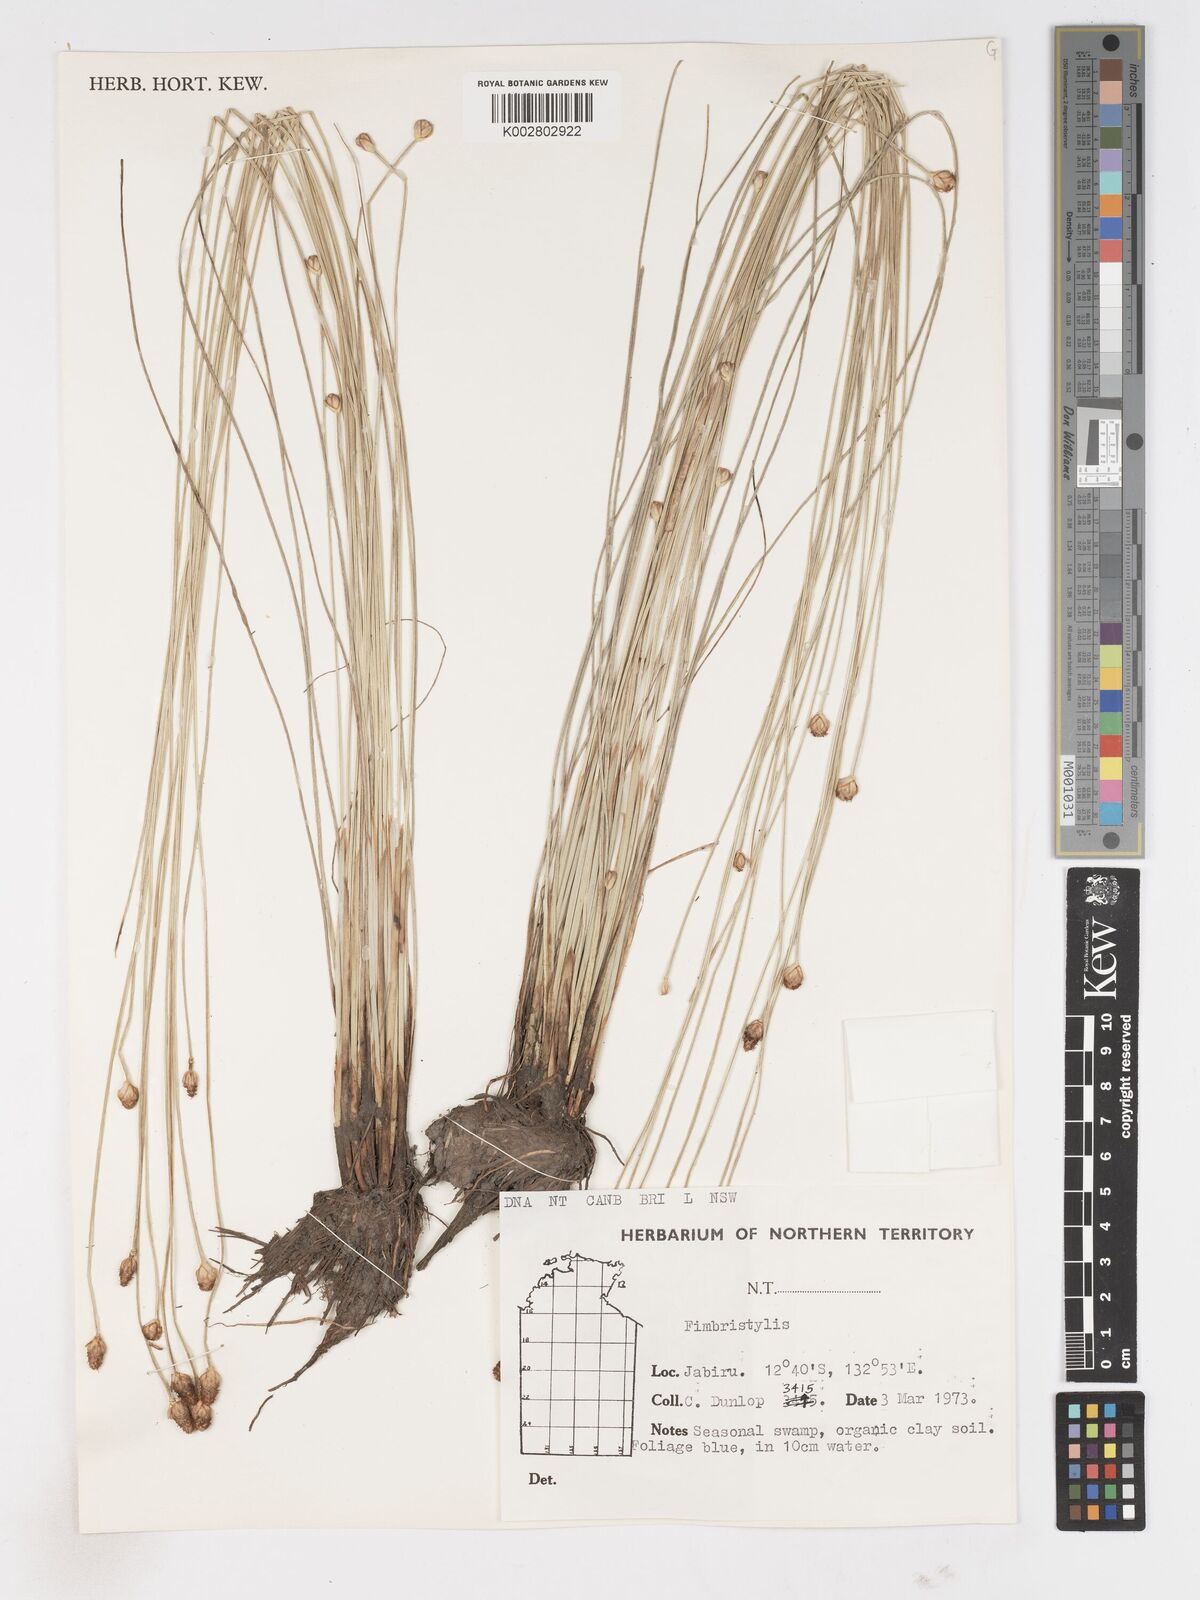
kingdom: Plantae
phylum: Tracheophyta
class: Liliopsida
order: Poales
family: Cyperaceae
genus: Fimbristylis
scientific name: Fimbristylis
